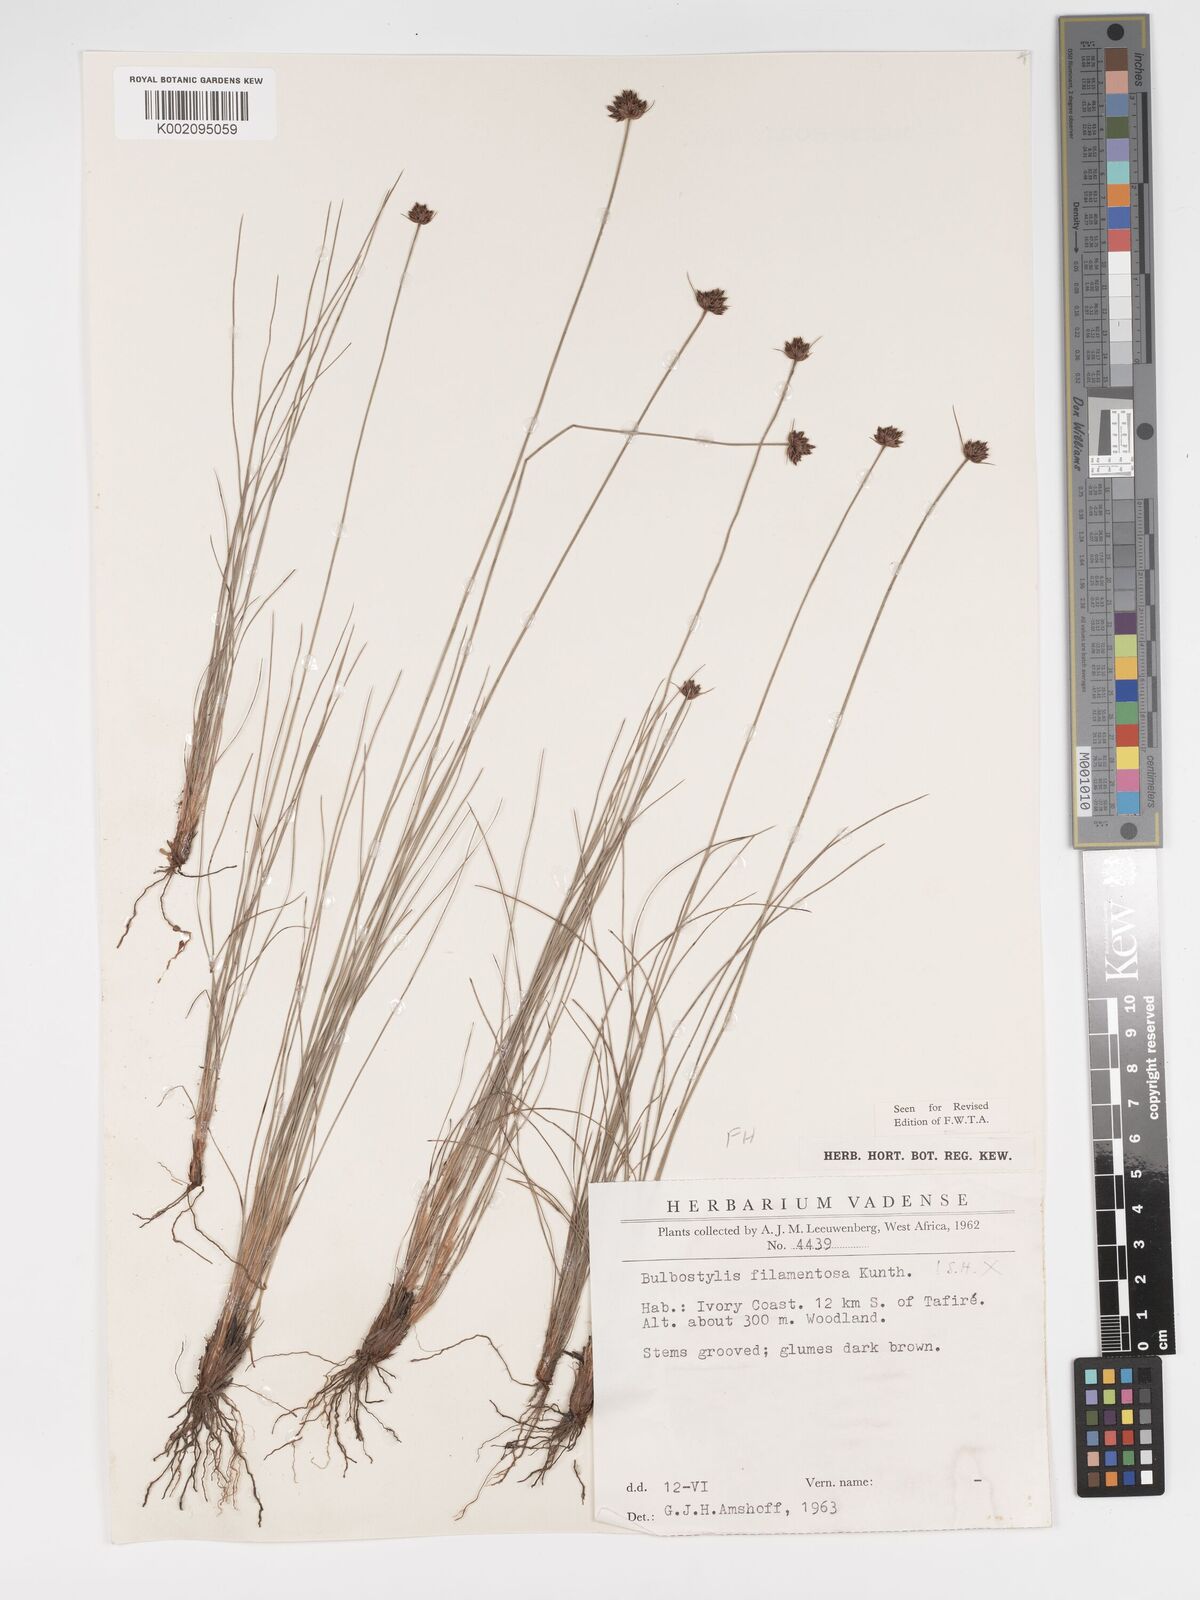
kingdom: Plantae
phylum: Tracheophyta
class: Liliopsida
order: Poales
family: Cyperaceae
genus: Bulbostylis
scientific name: Bulbostylis scabricaulis
